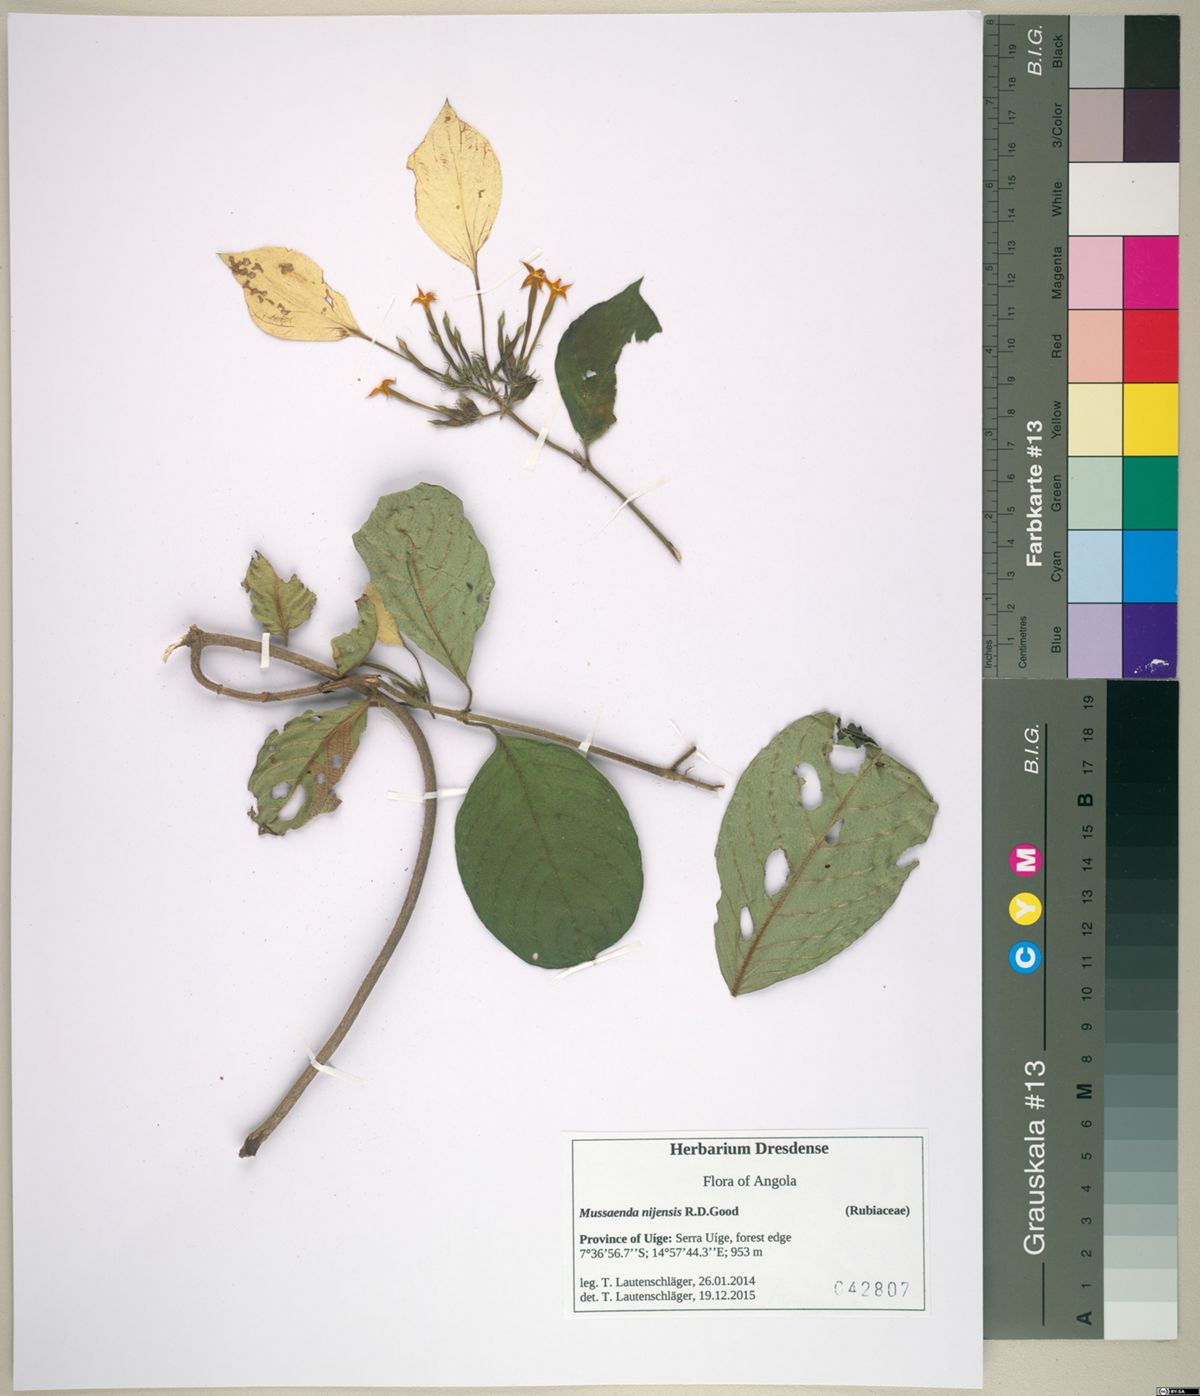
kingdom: Plantae
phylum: Tracheophyta
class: Magnoliopsida
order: Gentianales
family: Rubiaceae
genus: Mussaenda
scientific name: Mussaenda nijensis
